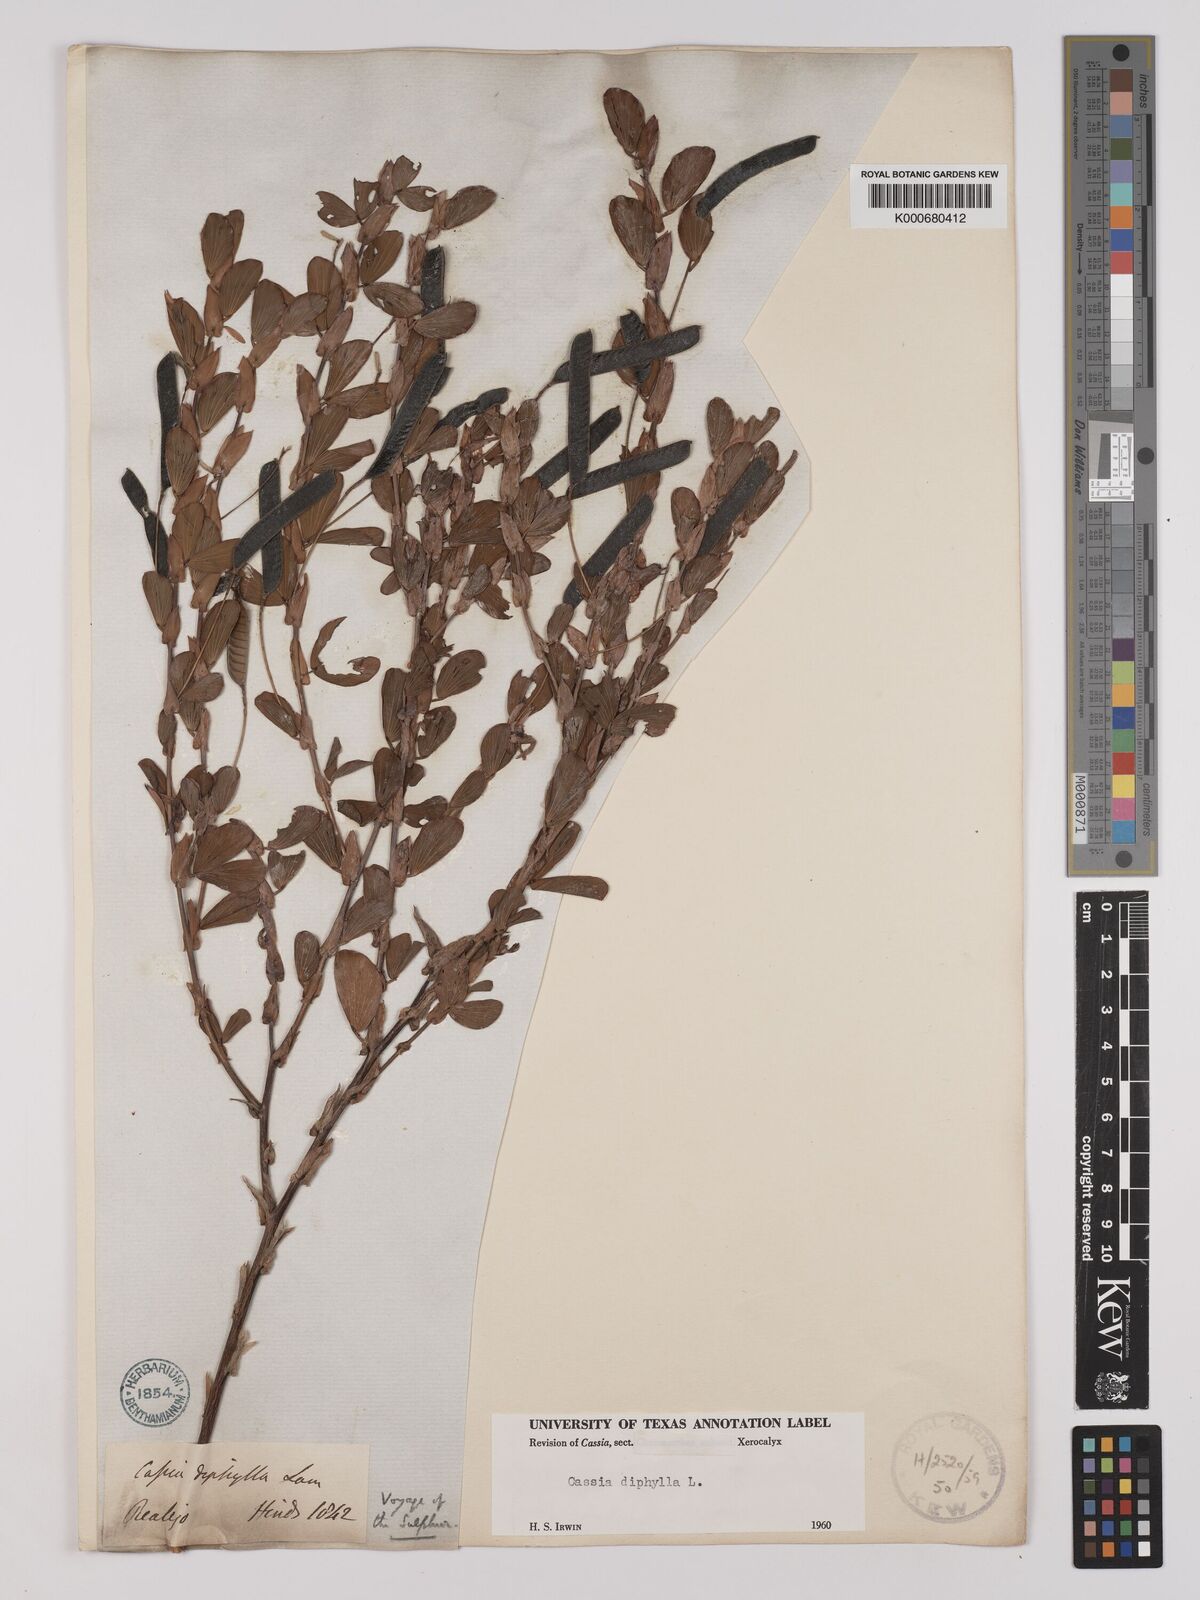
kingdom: Plantae
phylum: Tracheophyta
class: Magnoliopsida
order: Fabales
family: Fabaceae
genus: Chamaecrista
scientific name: Chamaecrista diphylla
